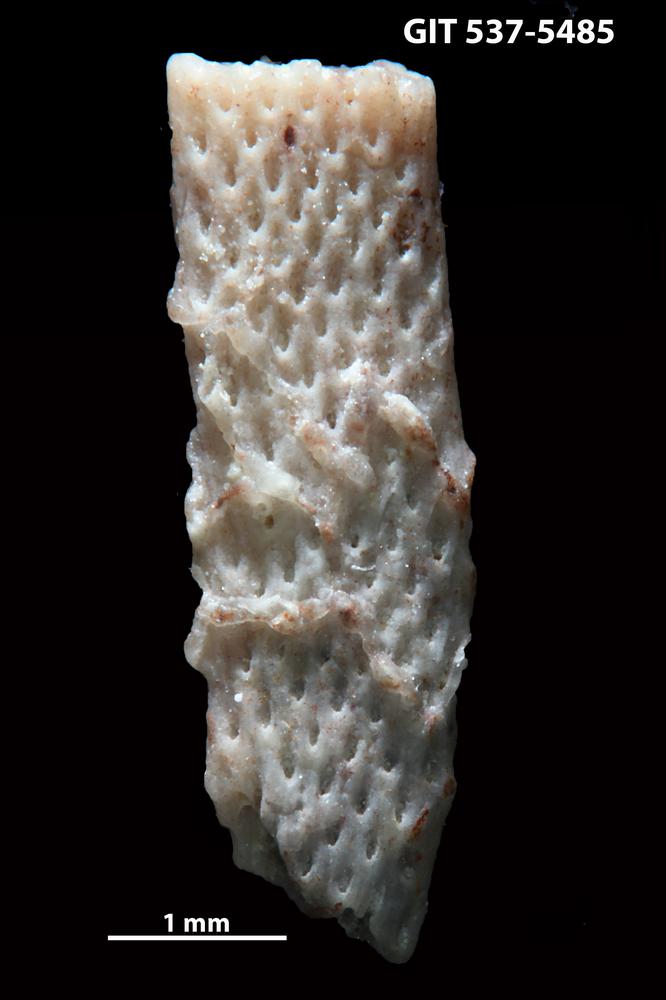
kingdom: Animalia
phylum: Bryozoa
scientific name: Bryozoa
